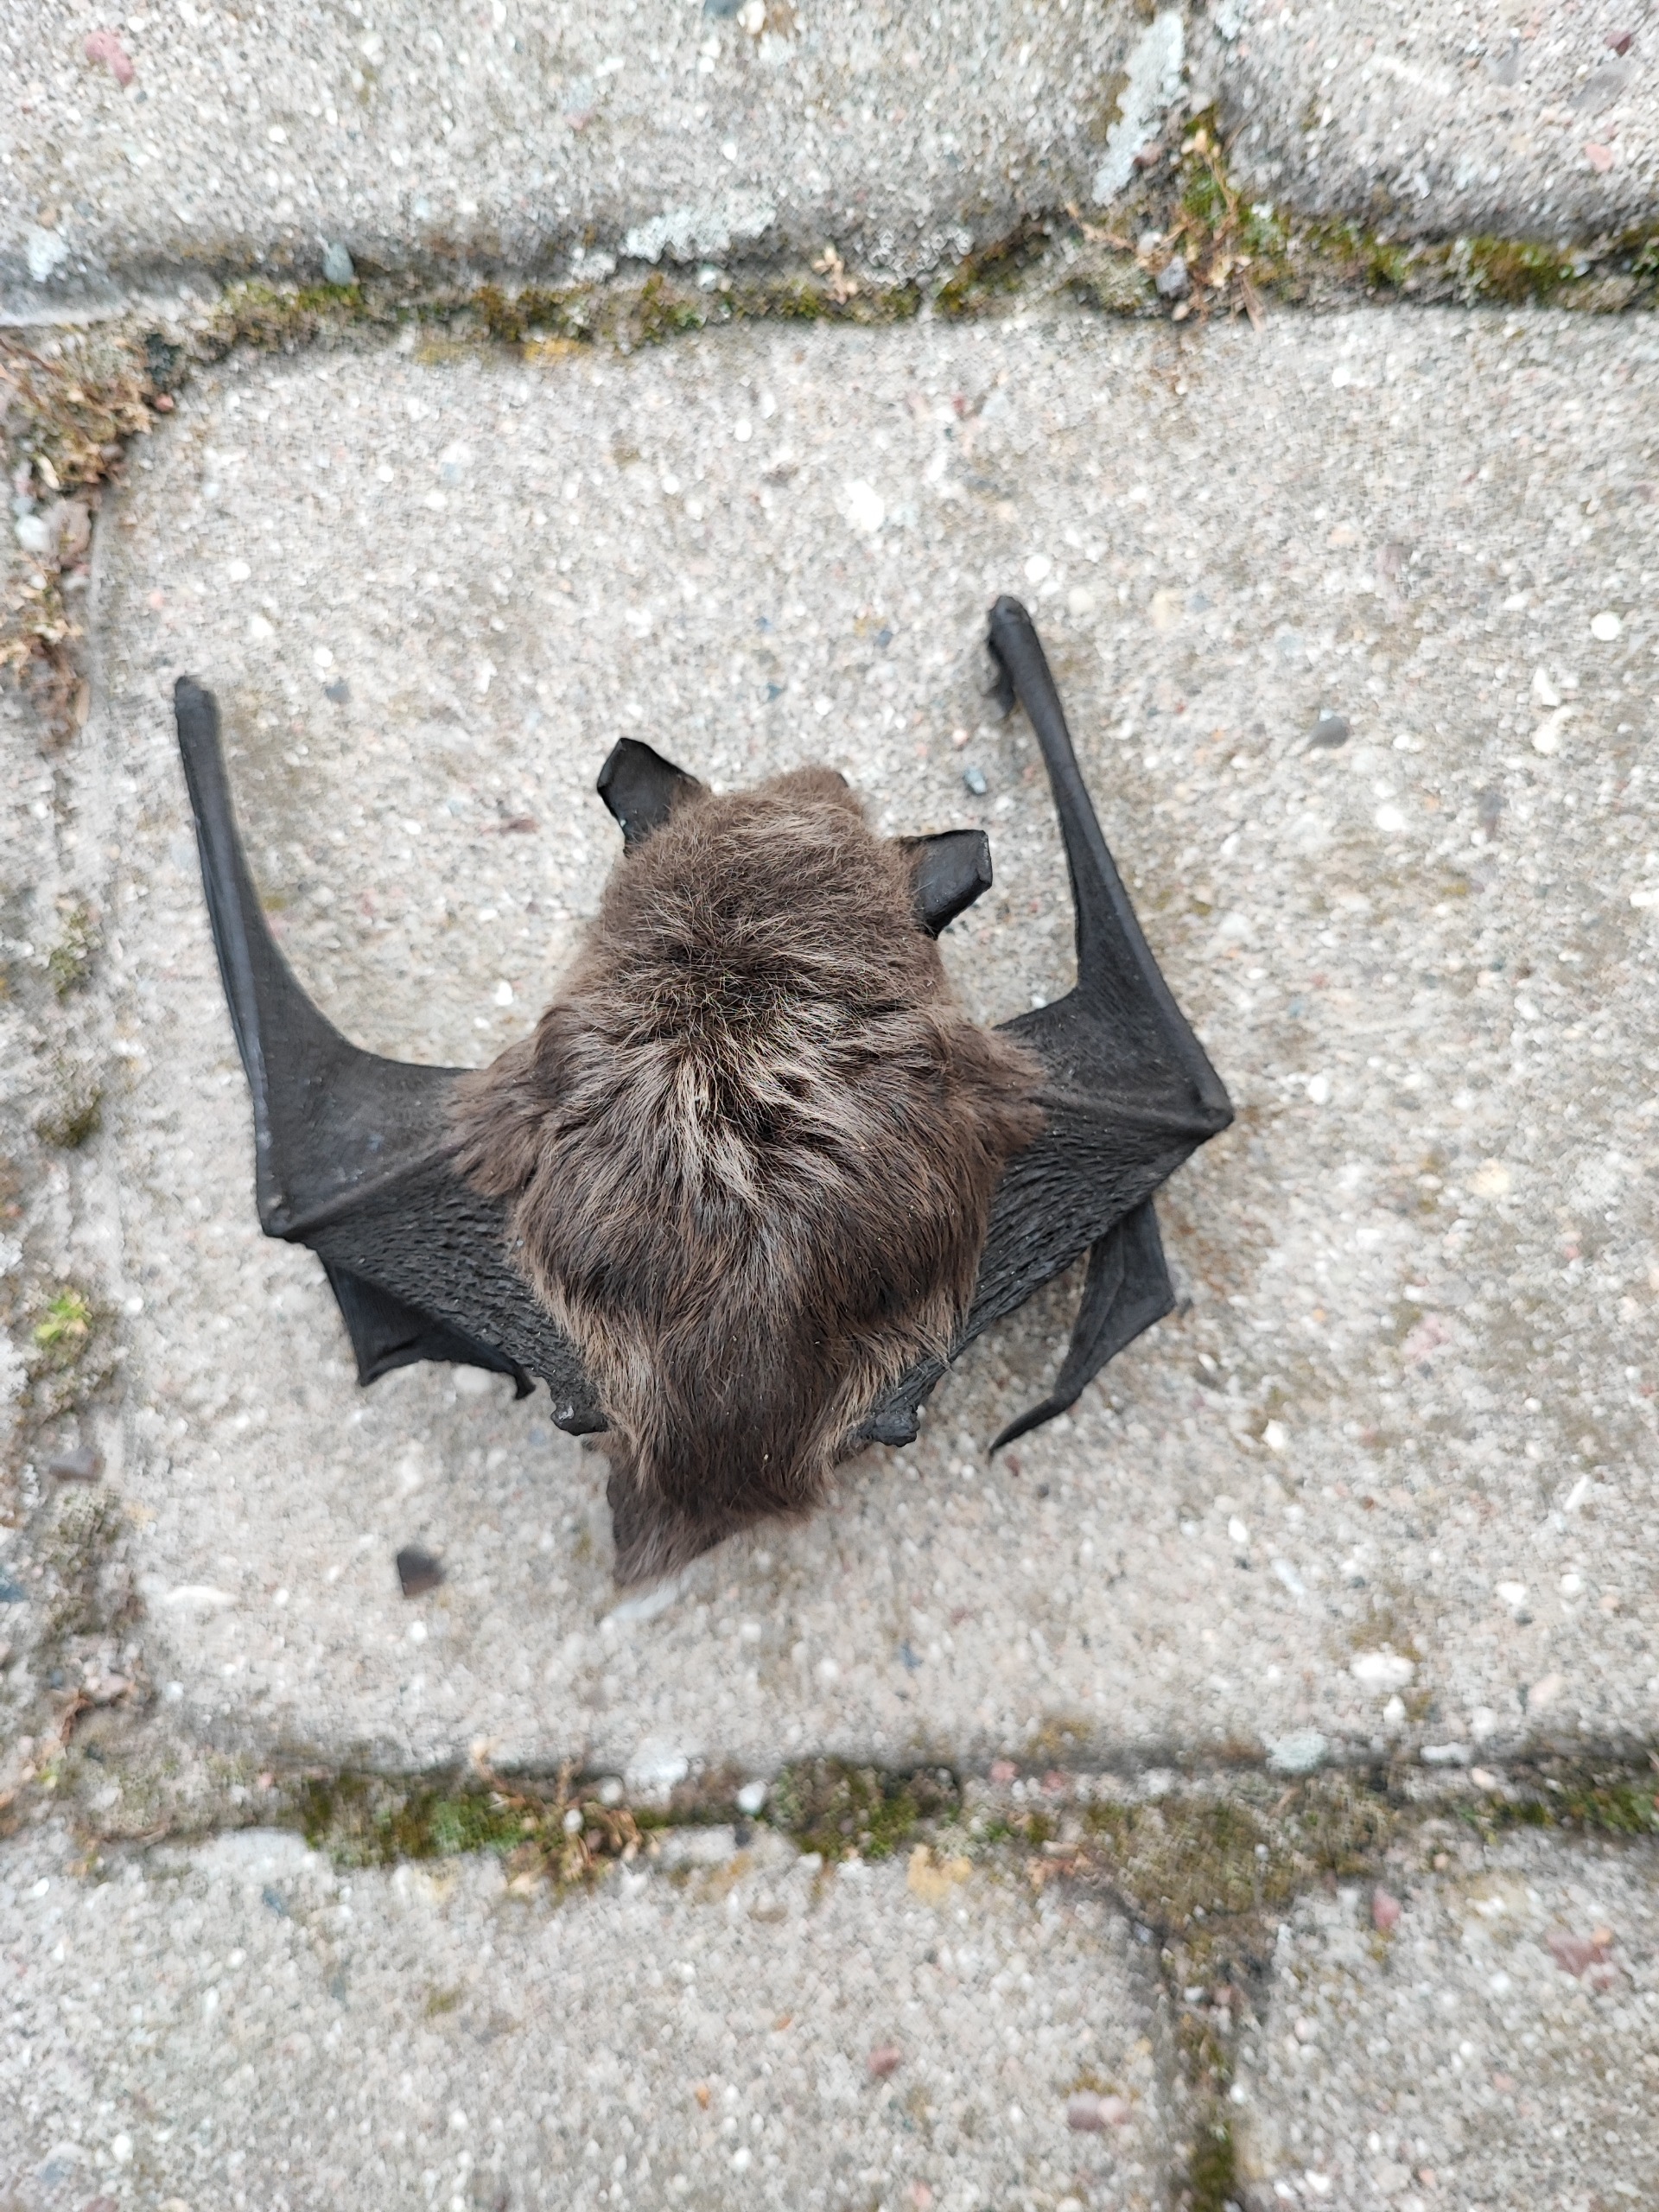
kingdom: Animalia
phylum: Chordata
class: Mammalia
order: Chiroptera
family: Vespertilionidae
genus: Vespertilio
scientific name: Vespertilio murinus
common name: Skimmelflagermus
